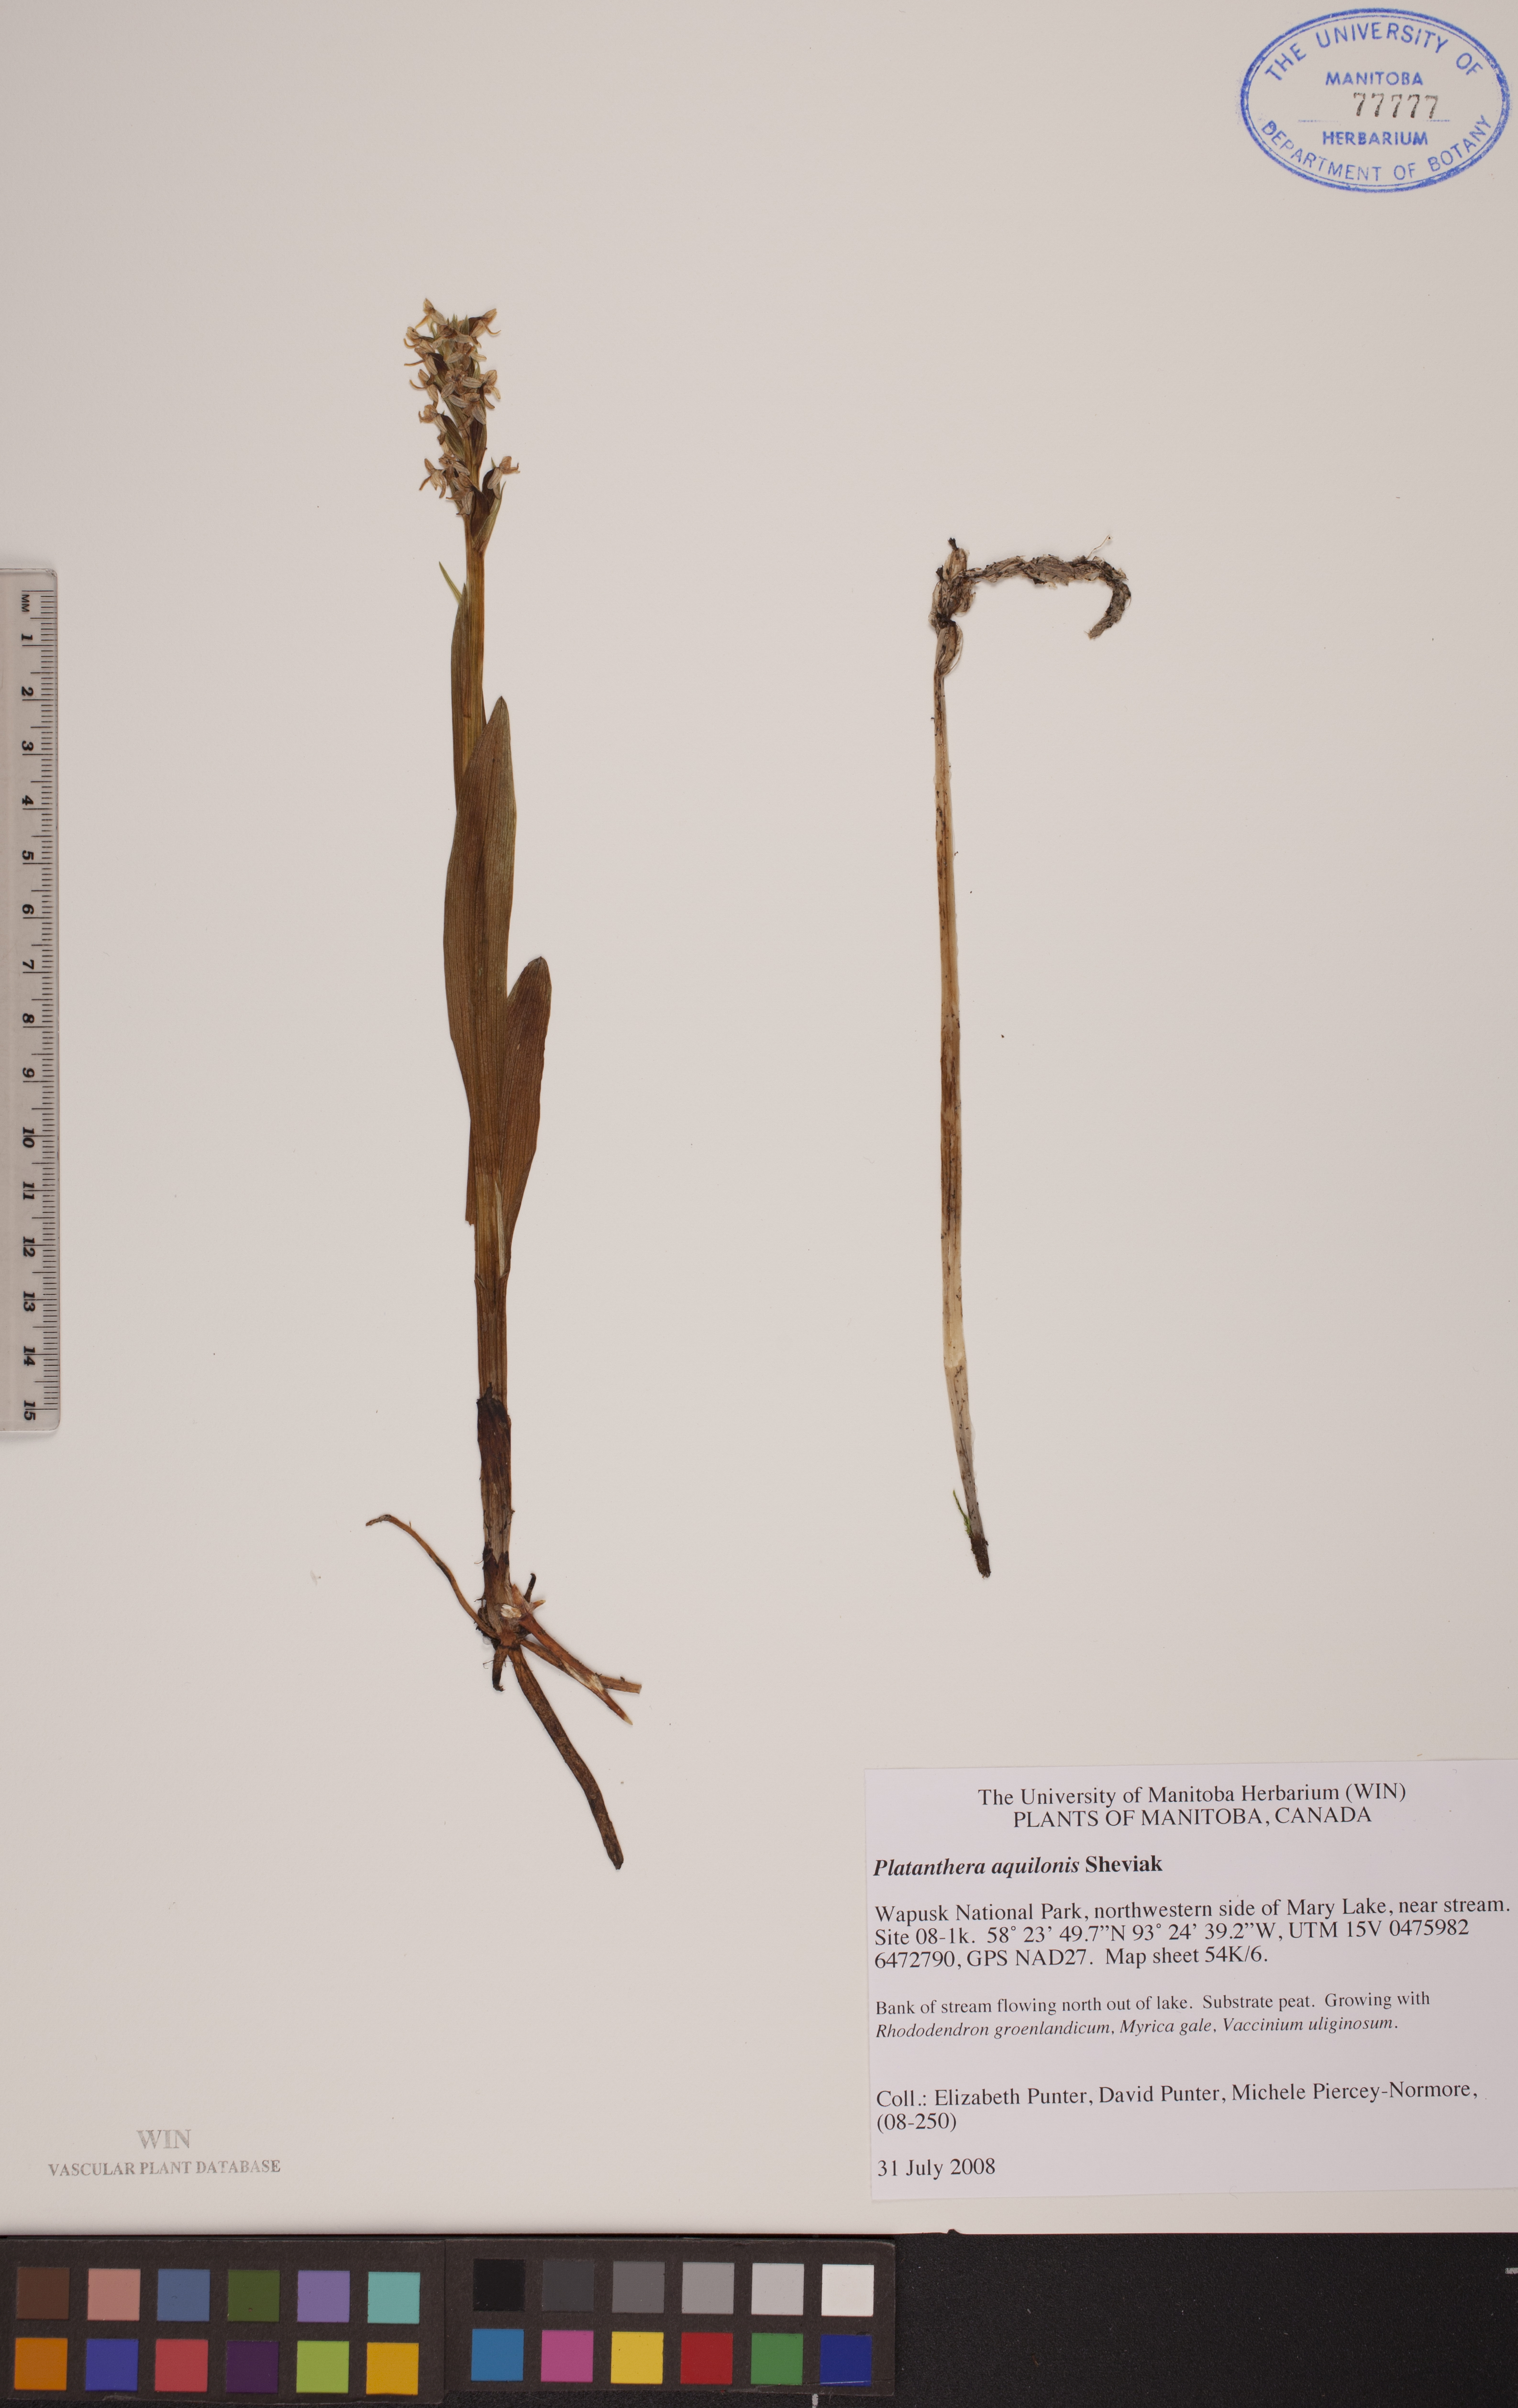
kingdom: Plantae
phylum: Tracheophyta
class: Liliopsida
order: Asparagales
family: Orchidaceae
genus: Platanthera
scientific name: Platanthera aquilonis
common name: Northern green orchid
